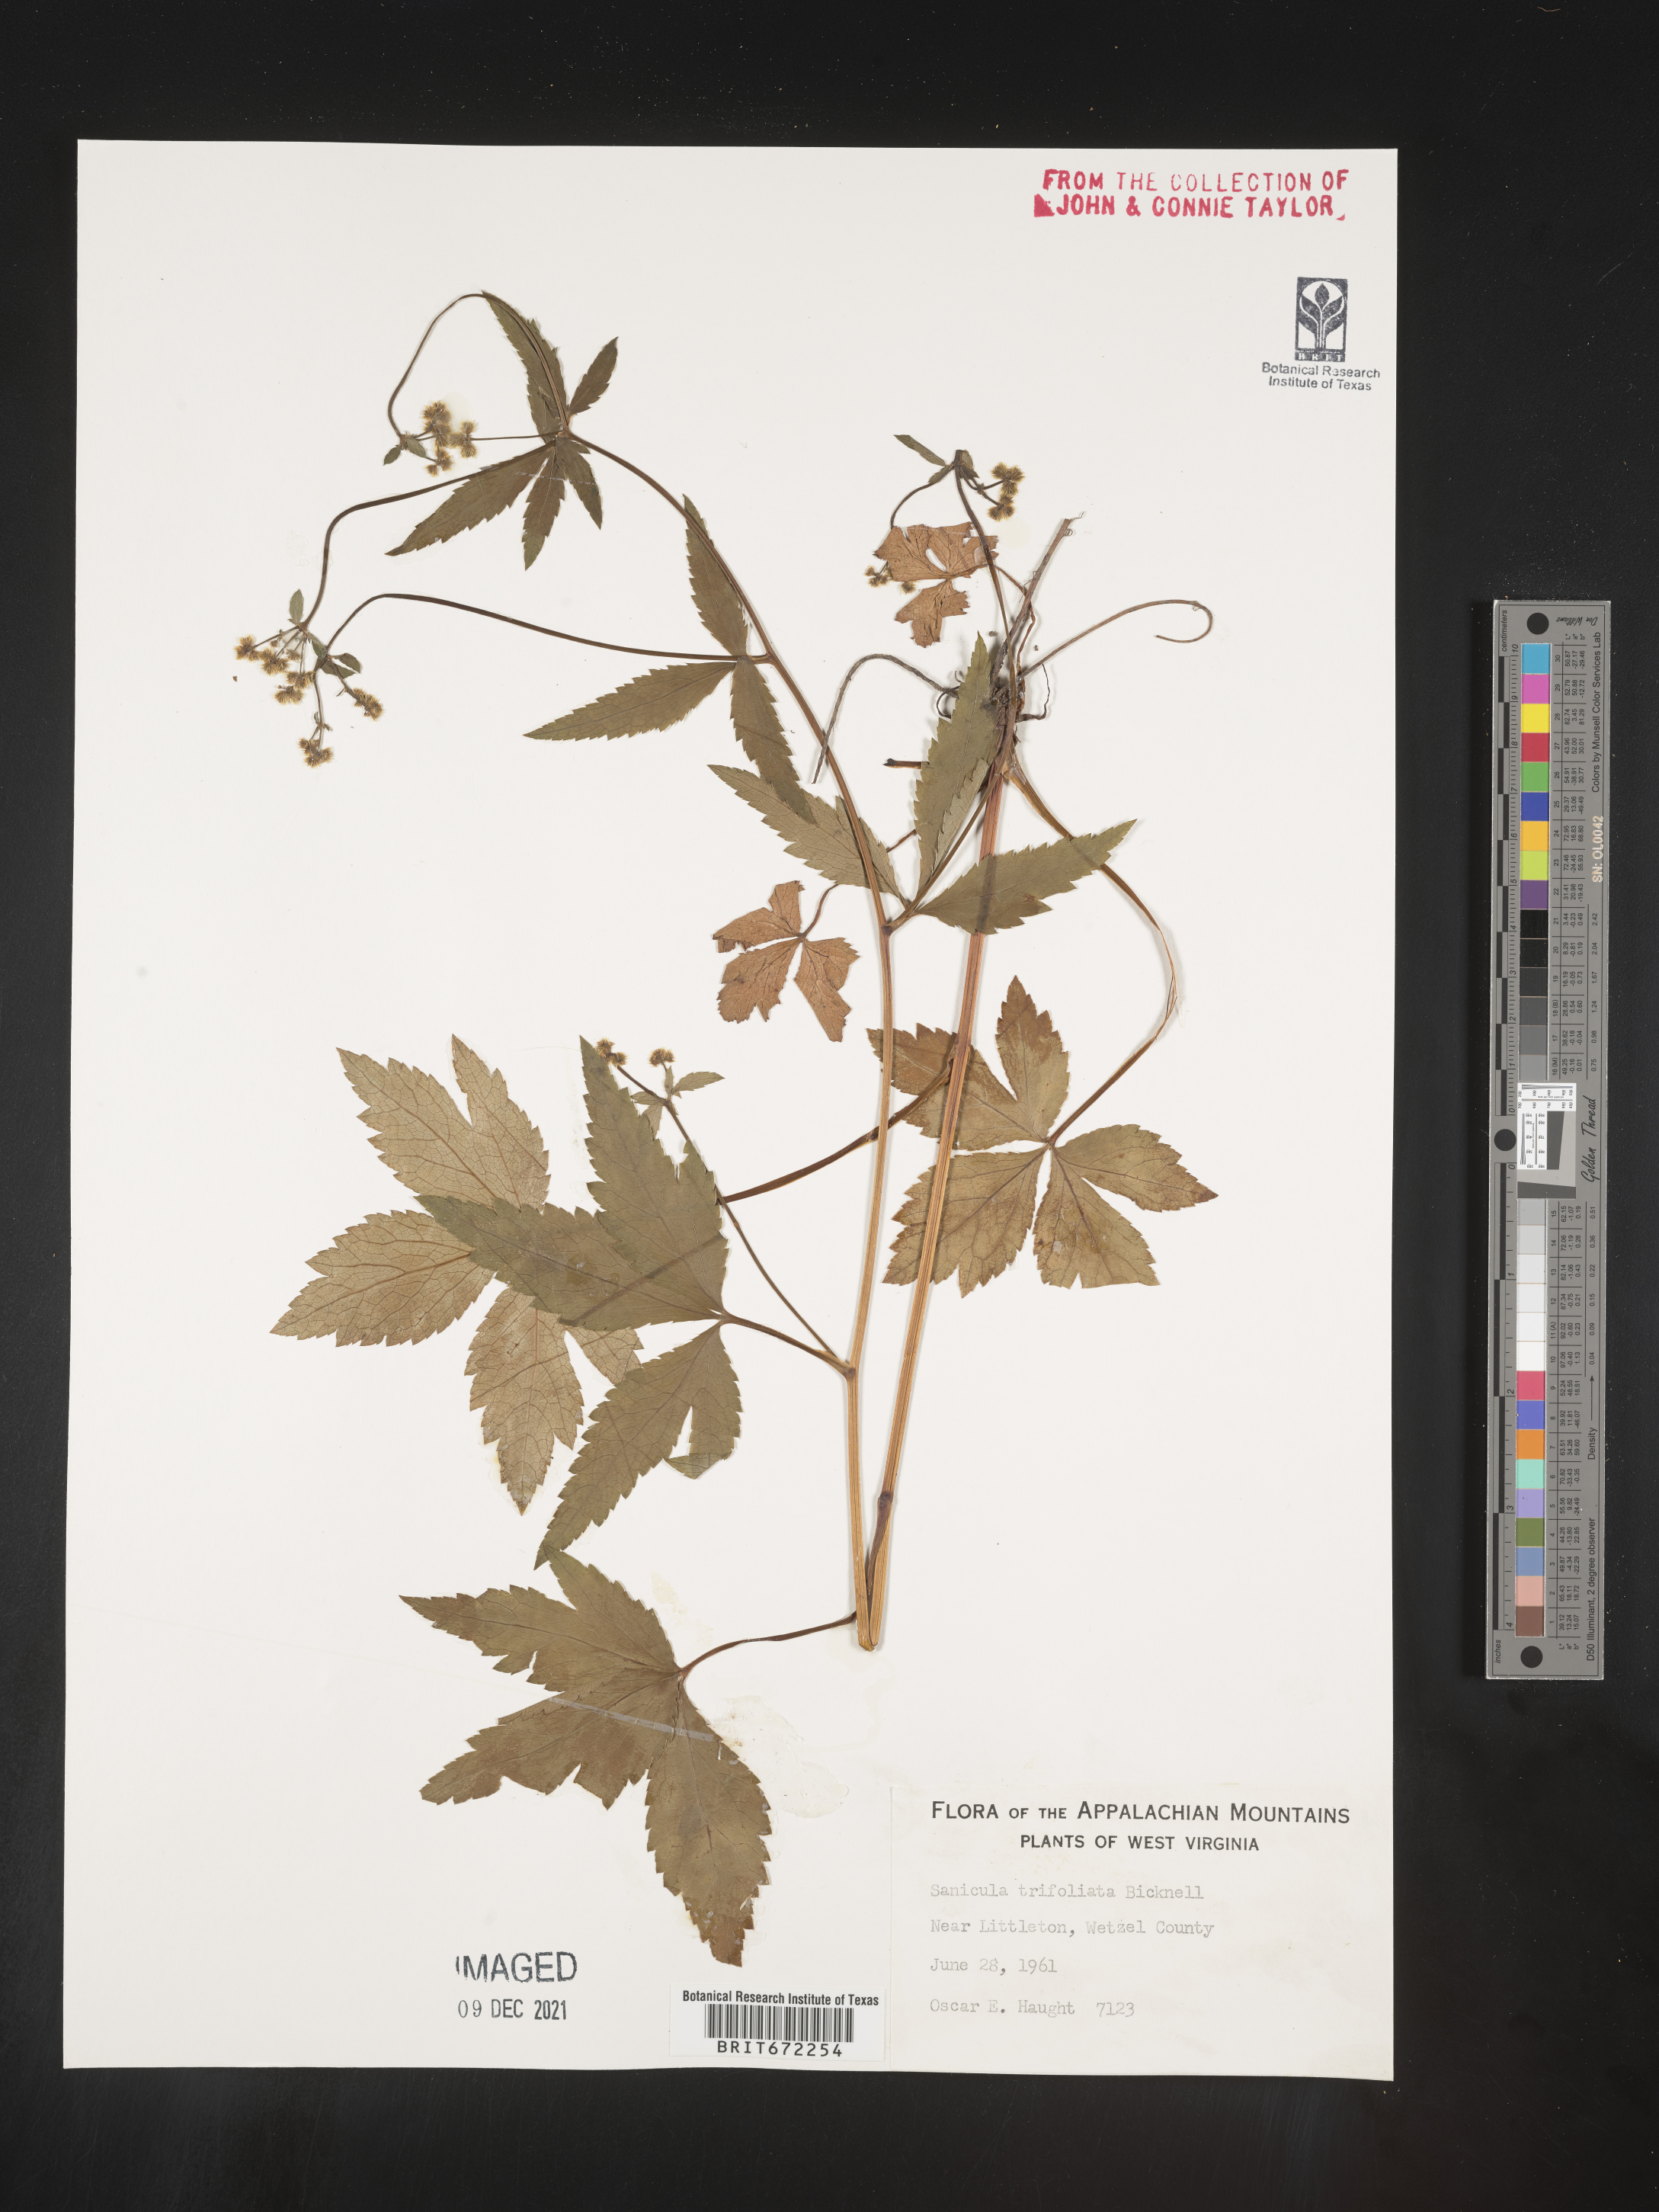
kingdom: Plantae
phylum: Tracheophyta
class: Magnoliopsida
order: Apiales
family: Apiaceae
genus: Sanicula
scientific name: Sanicula
